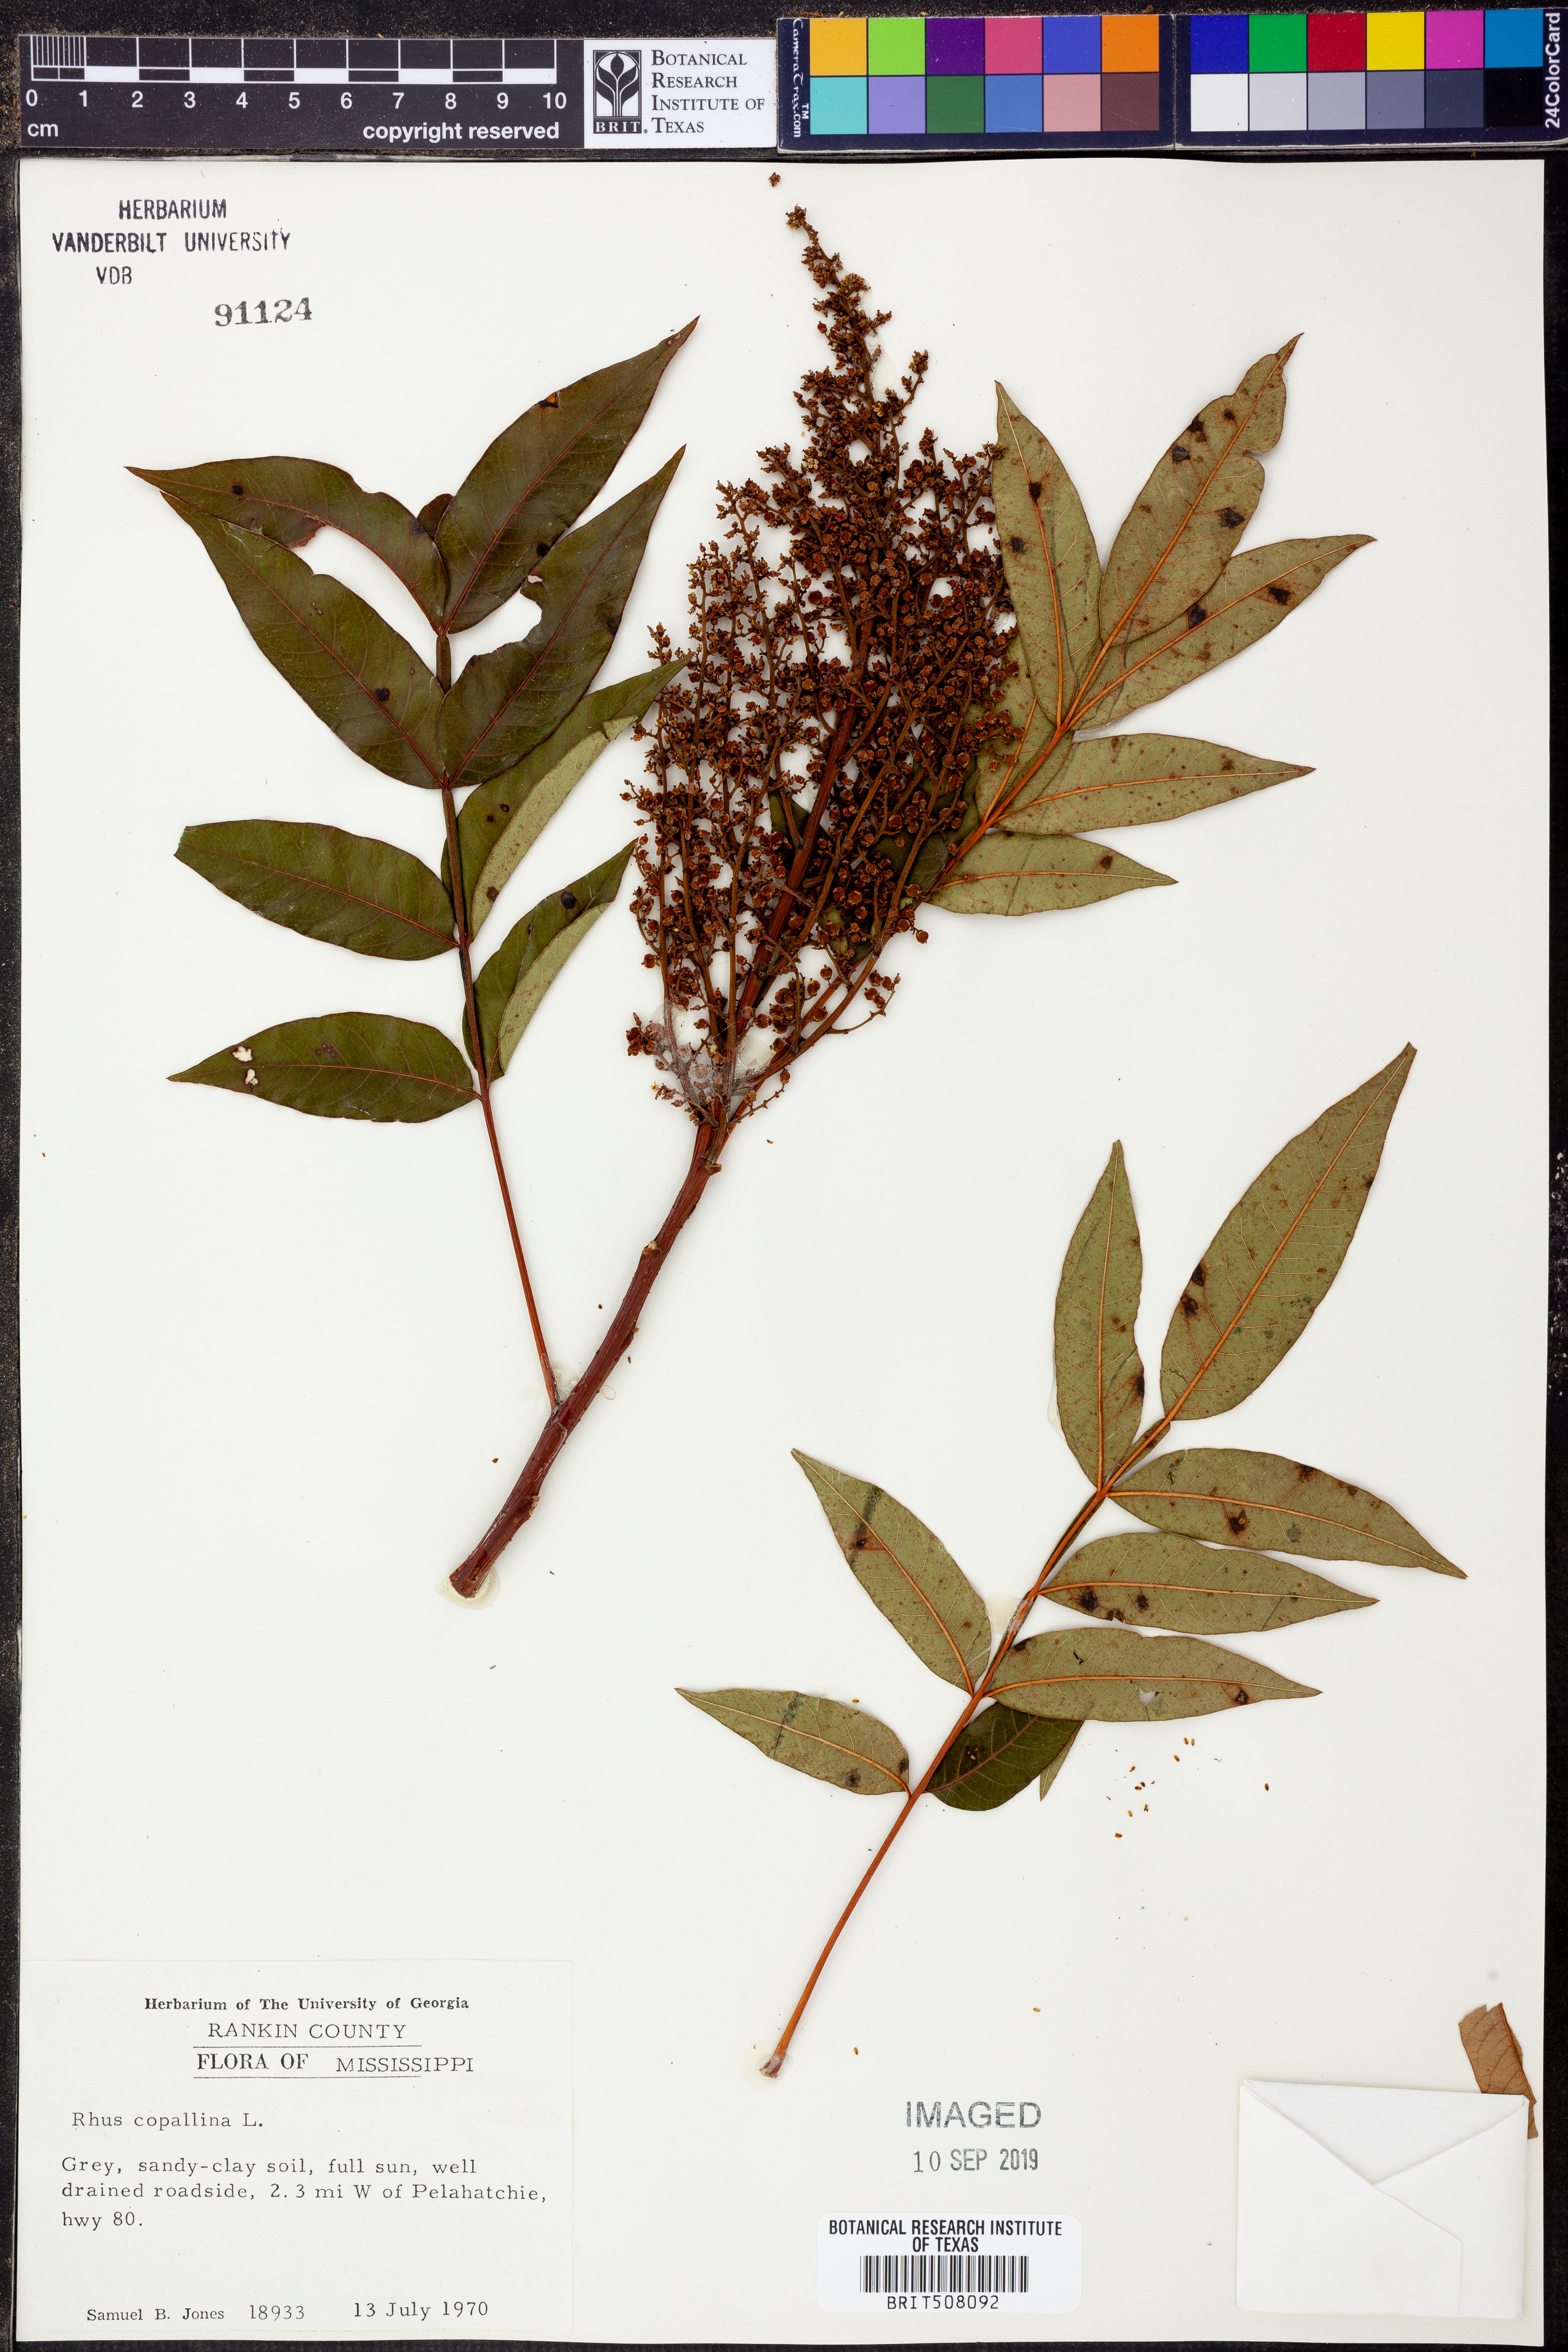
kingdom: Plantae
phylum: Tracheophyta
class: Magnoliopsida
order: Sapindales
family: Anacardiaceae
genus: Rhus
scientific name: Rhus copallina
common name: Shining sumac
